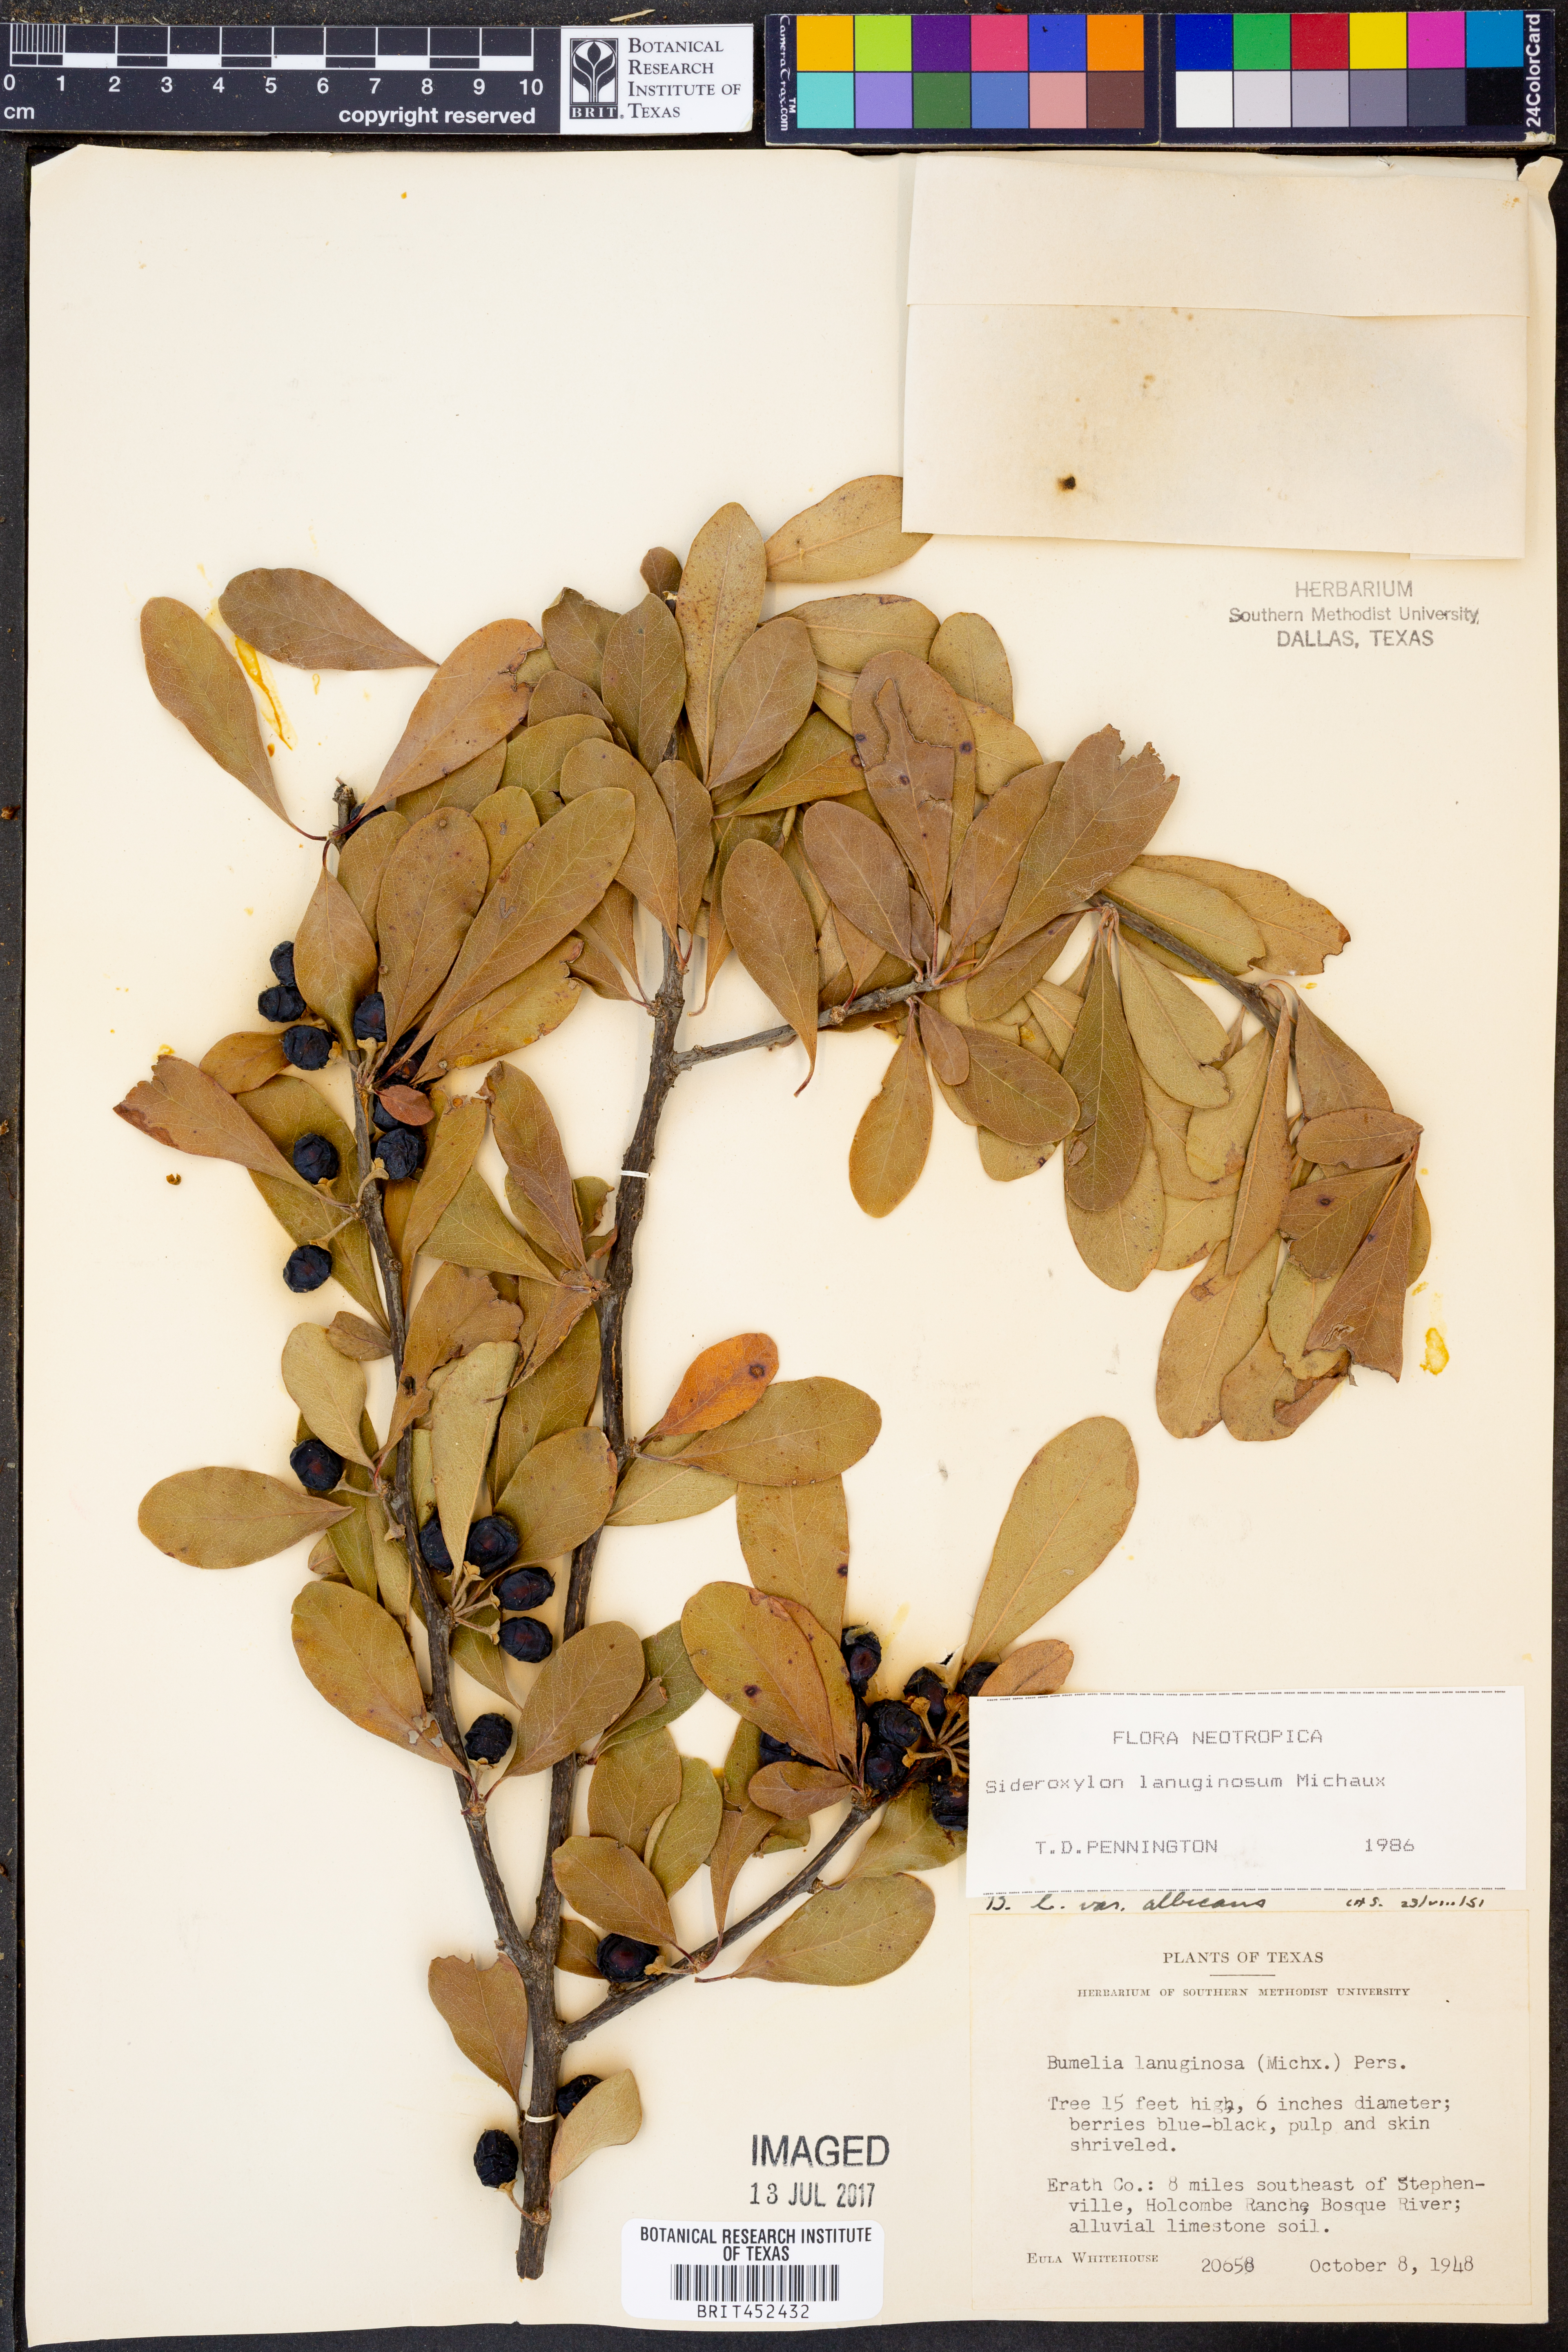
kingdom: Plantae
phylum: Tracheophyta
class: Magnoliopsida
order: Ericales
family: Sapotaceae
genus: Sideroxylon
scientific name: Sideroxylon lanuginosum
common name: Chittamwood
